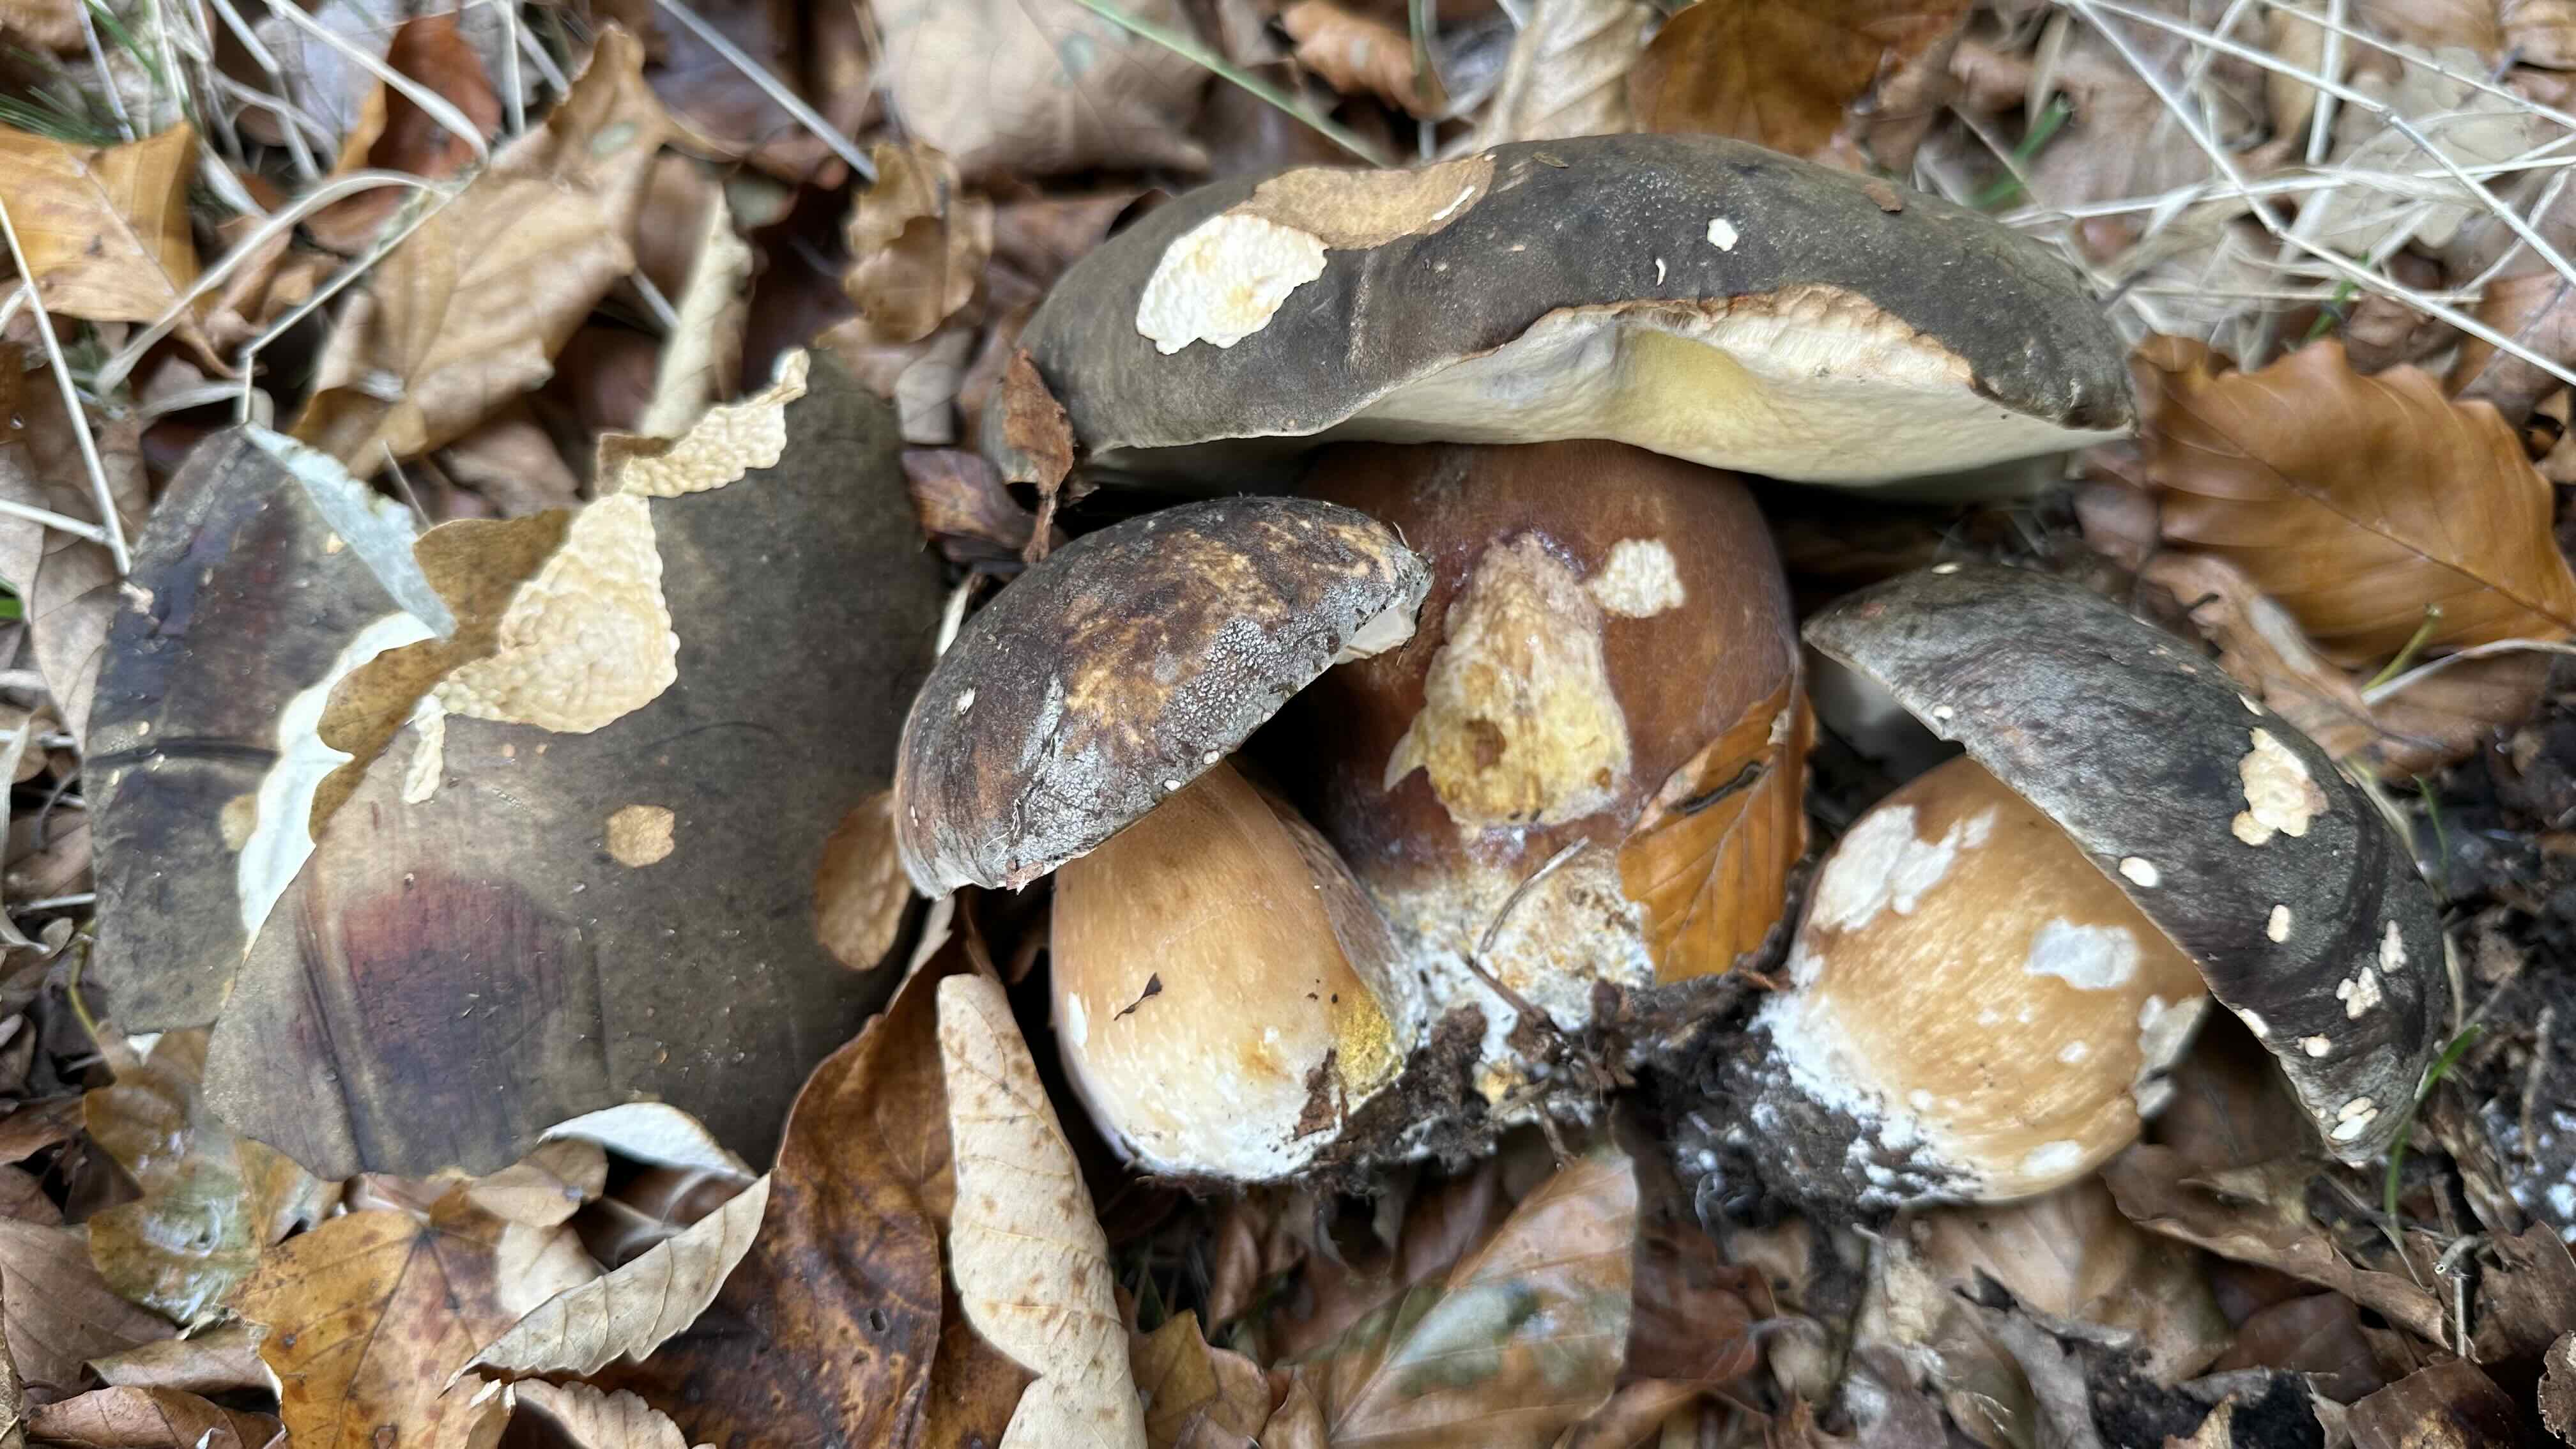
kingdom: Fungi
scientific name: Fungi
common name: bronze-rørhat
